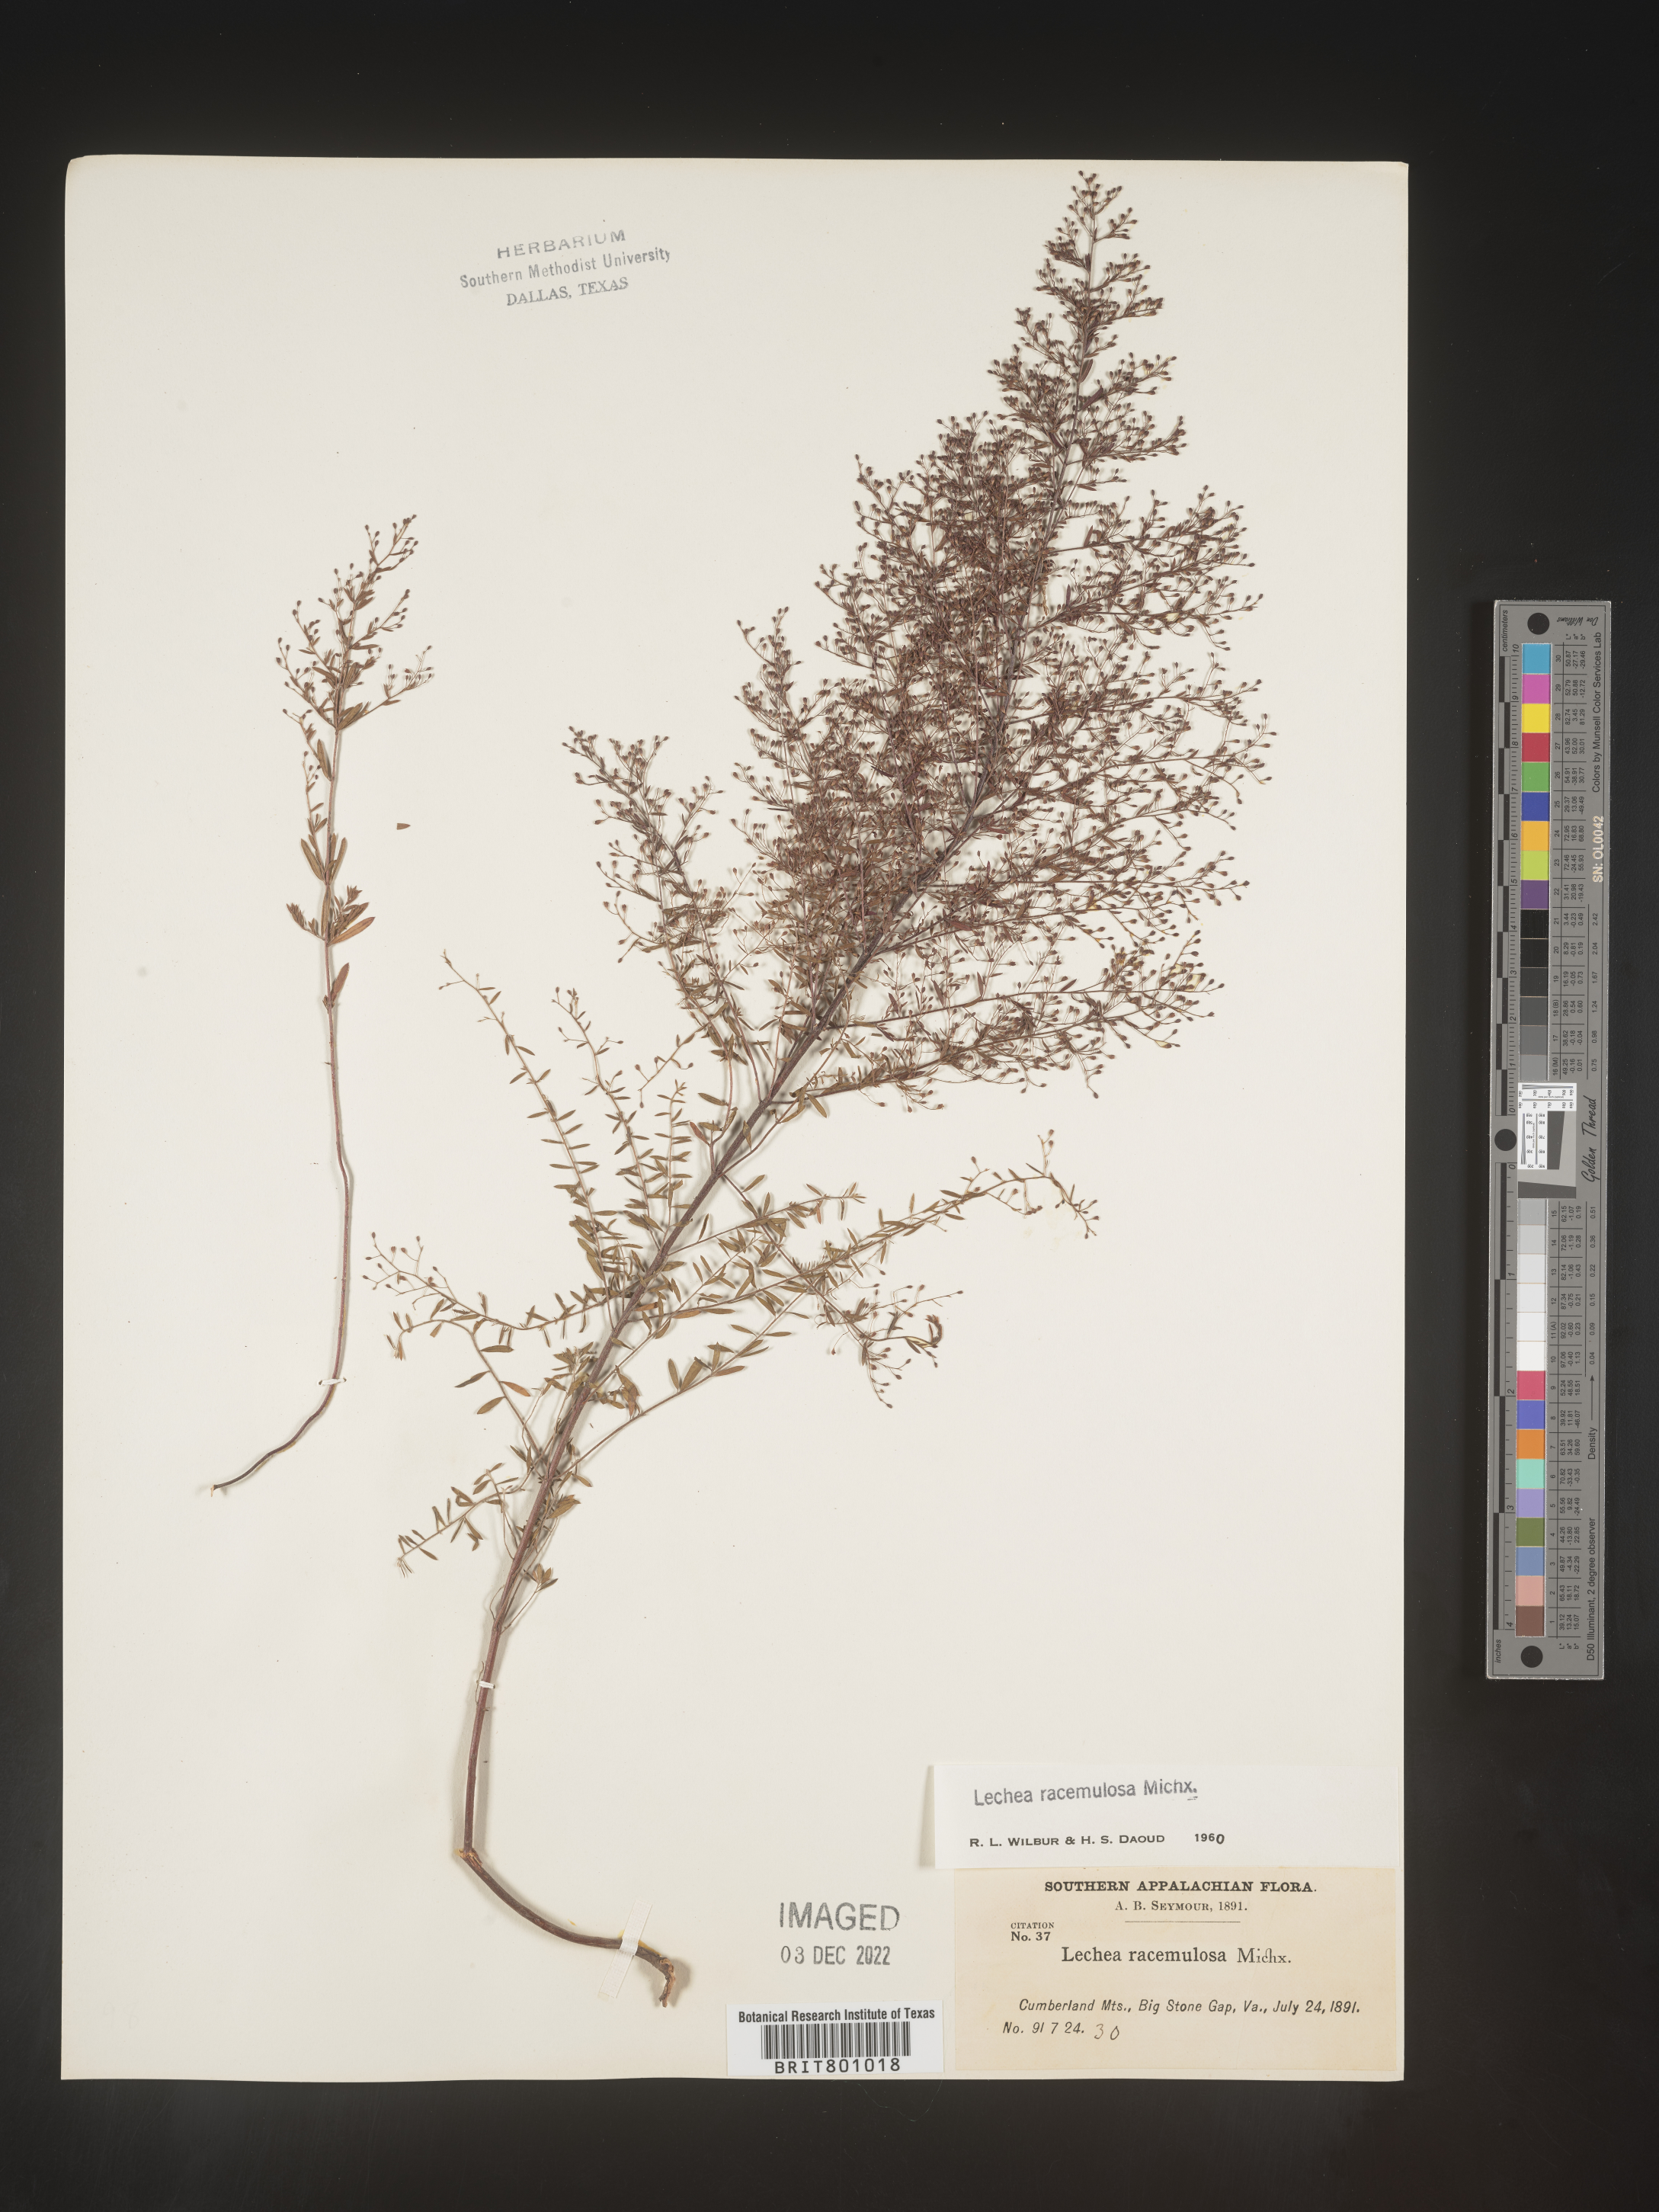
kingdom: Plantae
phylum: Tracheophyta
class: Magnoliopsida
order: Malvales
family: Cistaceae
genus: Lechea
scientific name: Lechea racemulosa
